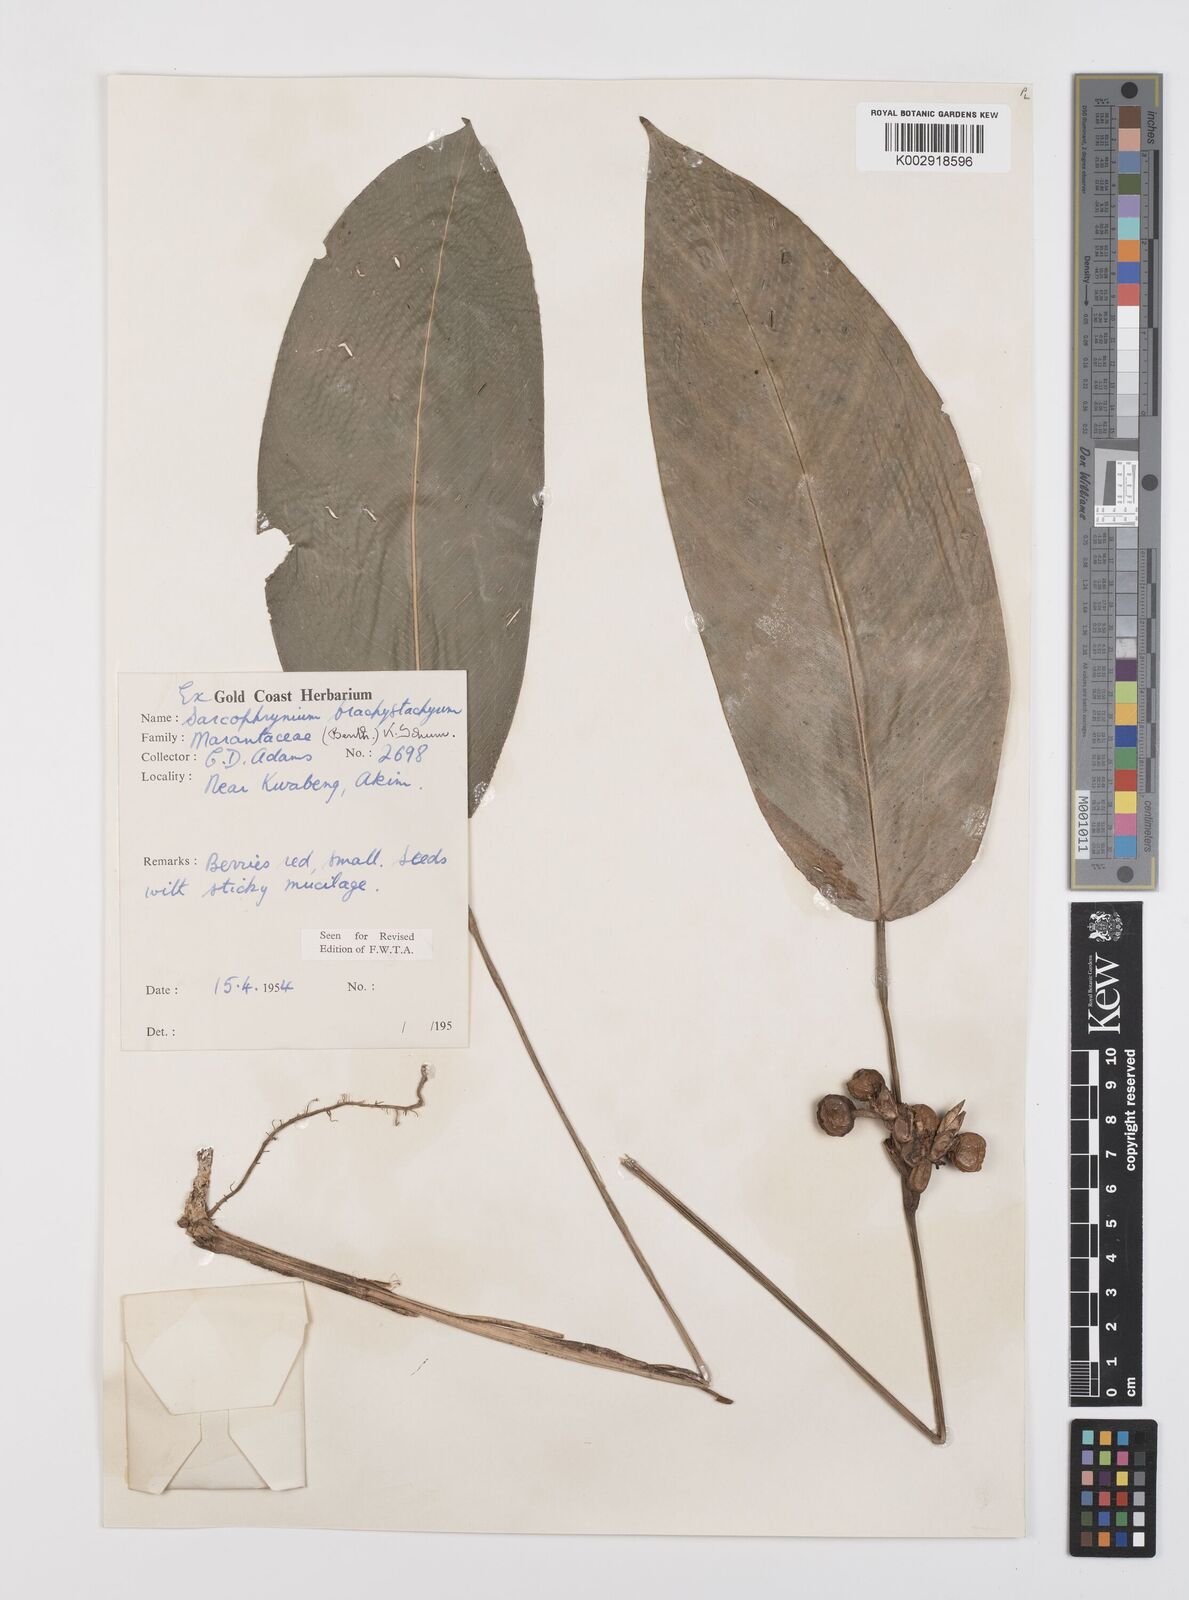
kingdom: Plantae
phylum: Tracheophyta
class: Liliopsida
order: Zingiberales
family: Marantaceae
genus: Sarcophrynium
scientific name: Sarcophrynium brachystachyum
